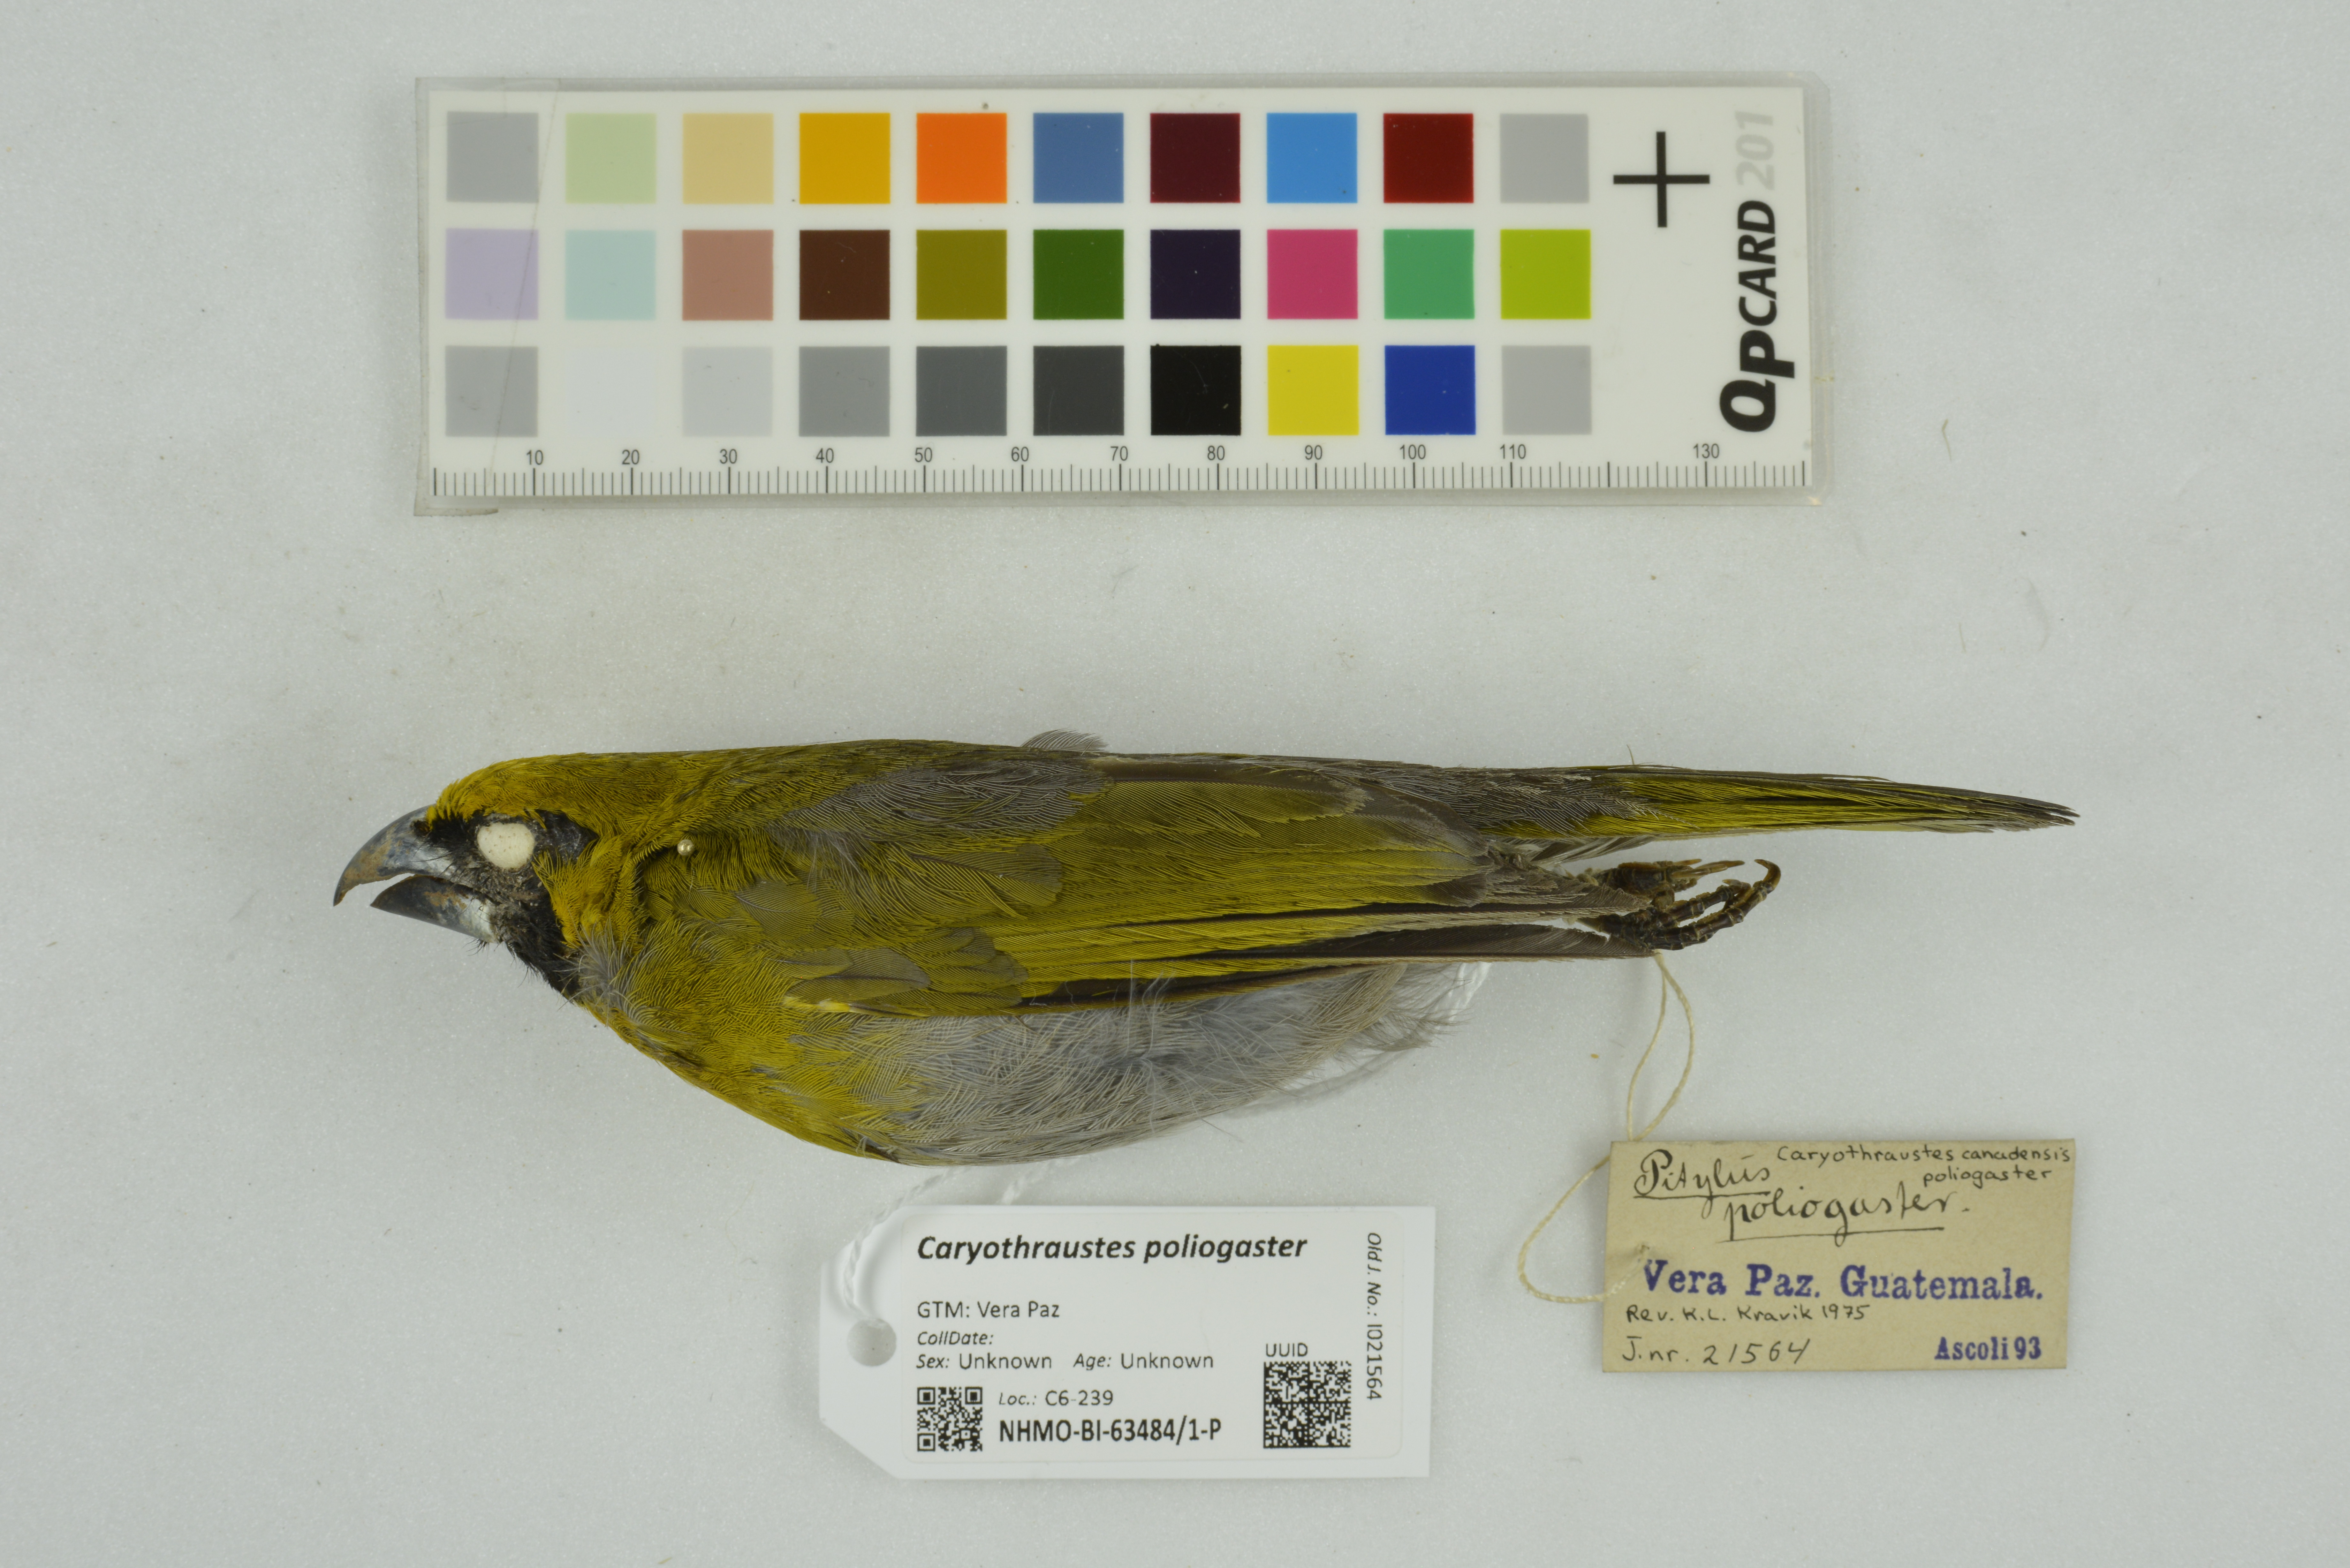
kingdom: Animalia
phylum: Chordata
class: Aves
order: Passeriformes
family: Cardinalidae
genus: Caryothraustes
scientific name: Caryothraustes poliogaster
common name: Black-faced grosbeak
